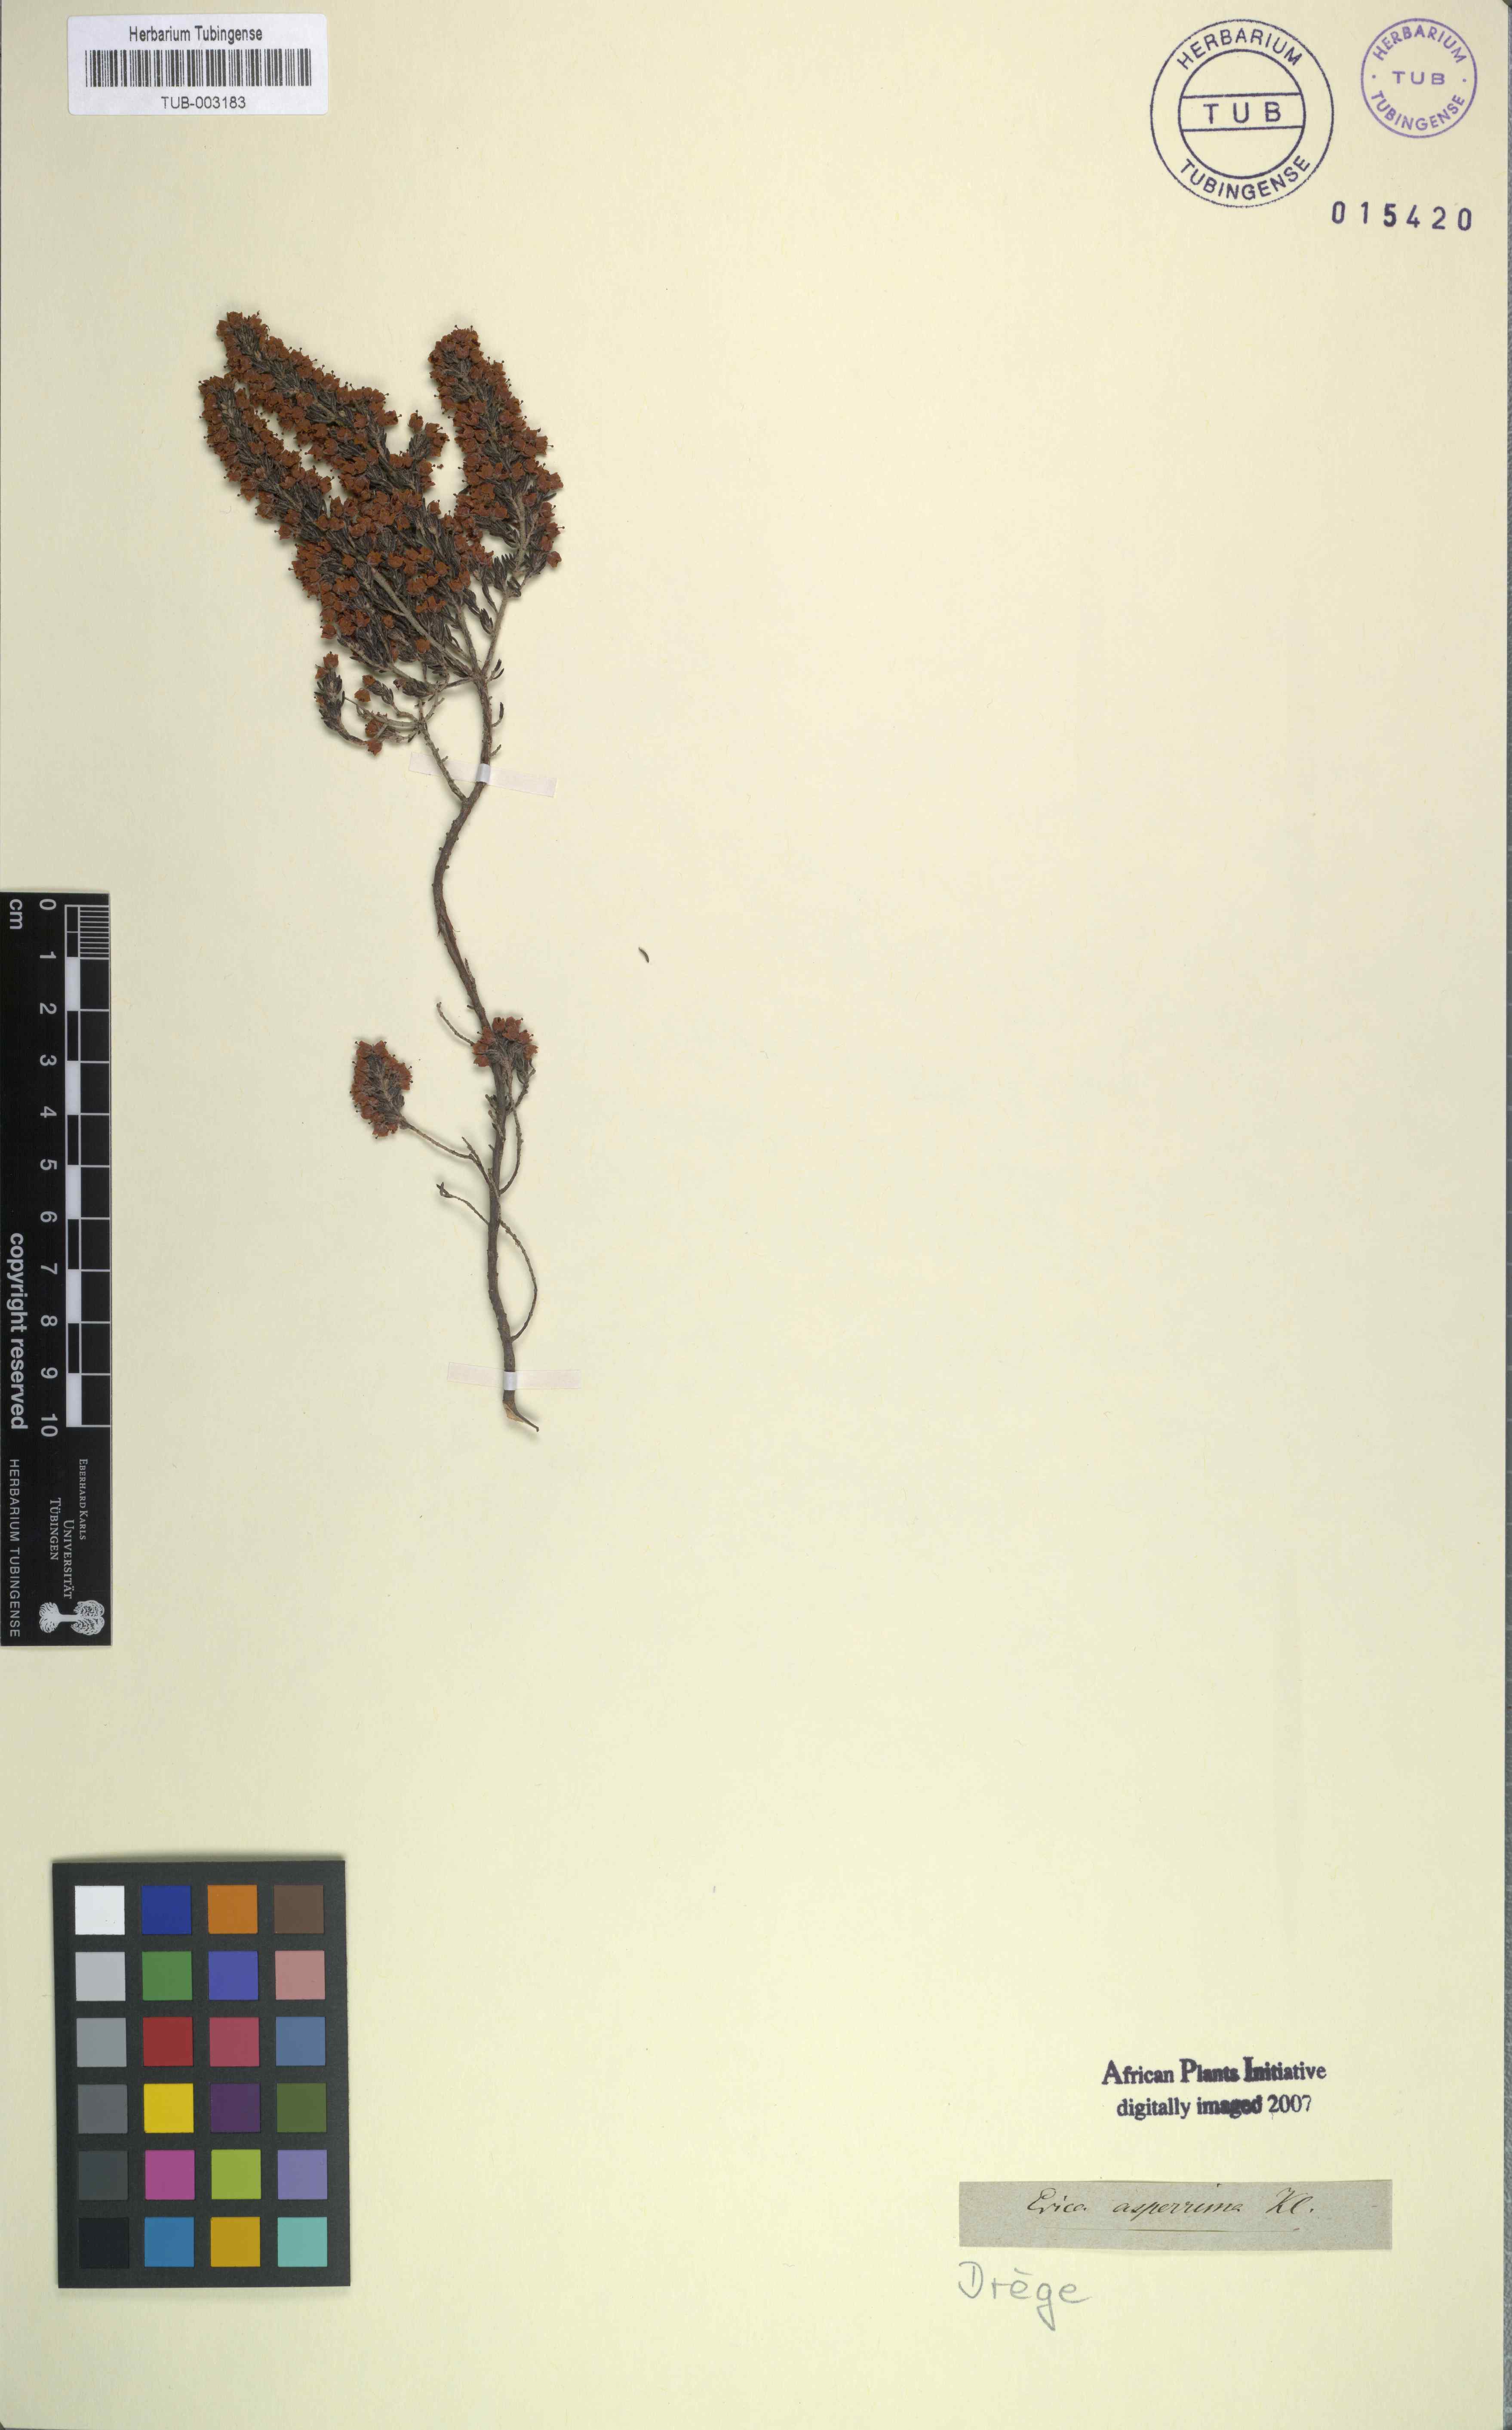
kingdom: Plantae
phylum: Tracheophyta
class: Magnoliopsida
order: Ericales
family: Ericaceae
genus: Erica
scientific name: Erica
